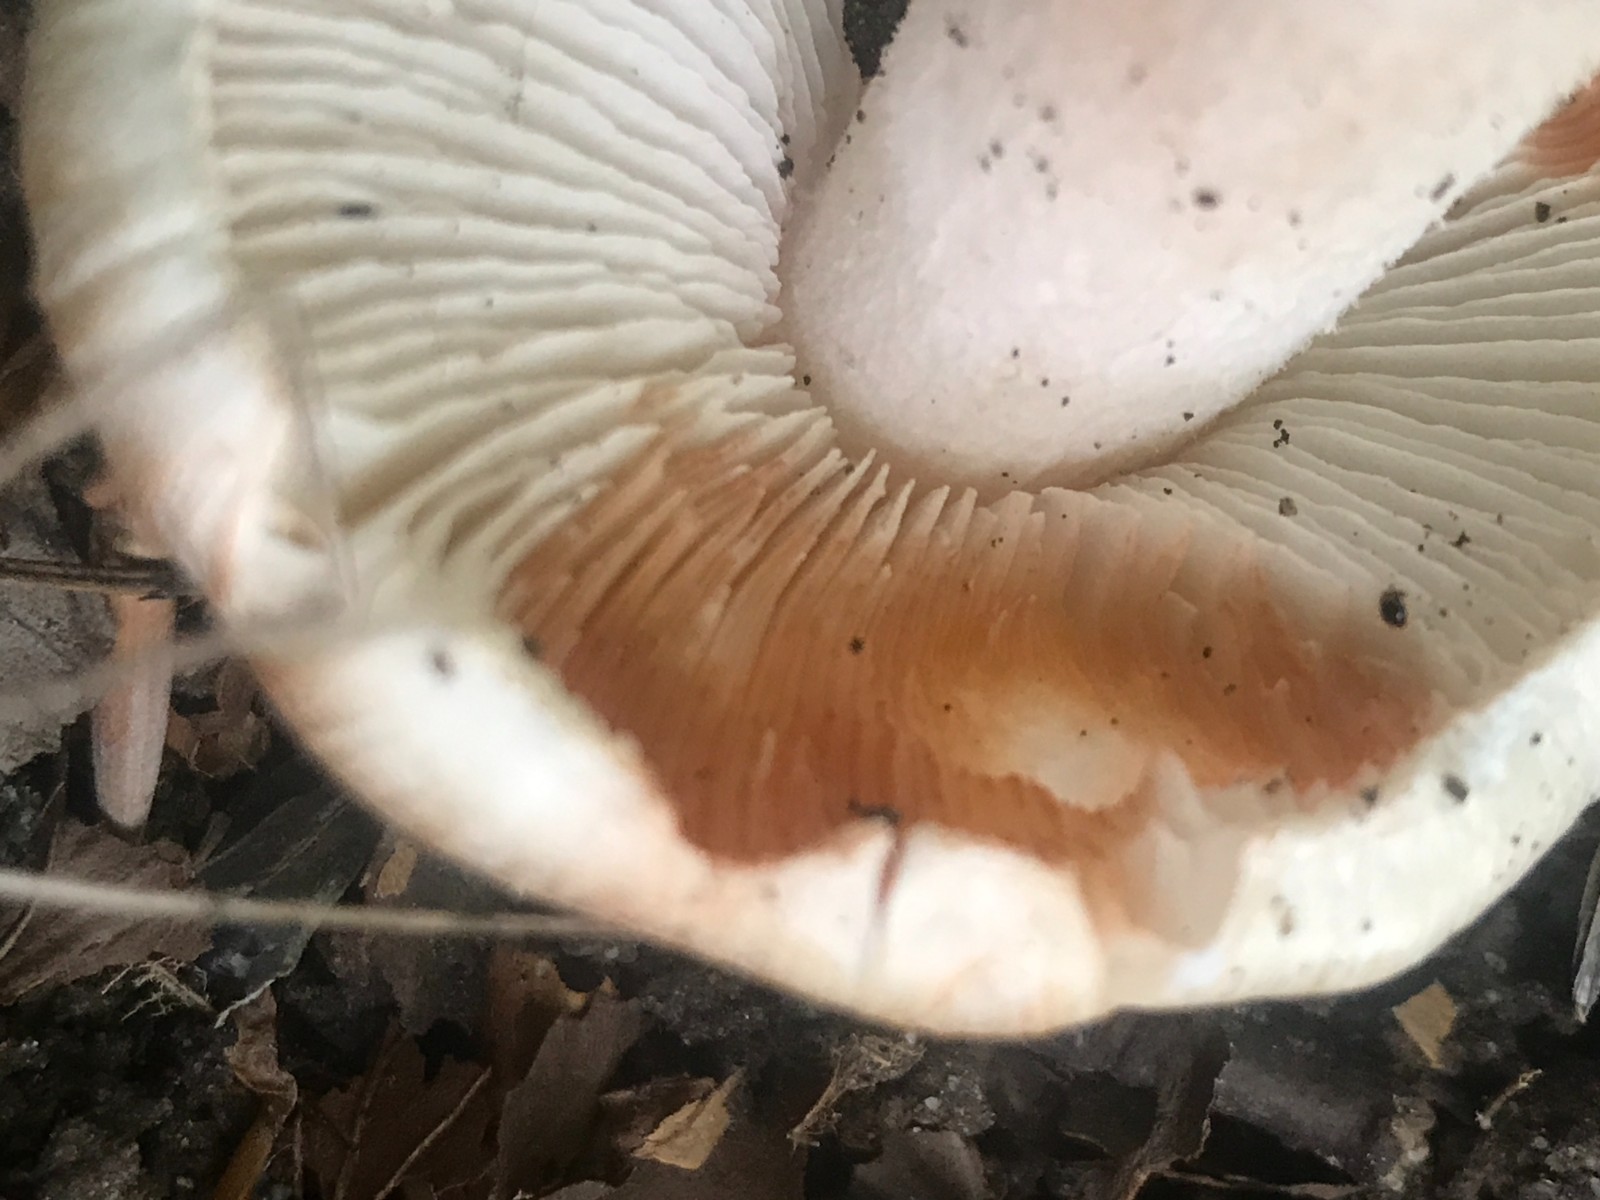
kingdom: Fungi
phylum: Basidiomycota
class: Agaricomycetes
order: Agaricales
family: Inocybaceae
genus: Inosperma
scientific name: Inosperma erubescens
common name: giftig trævlhat
